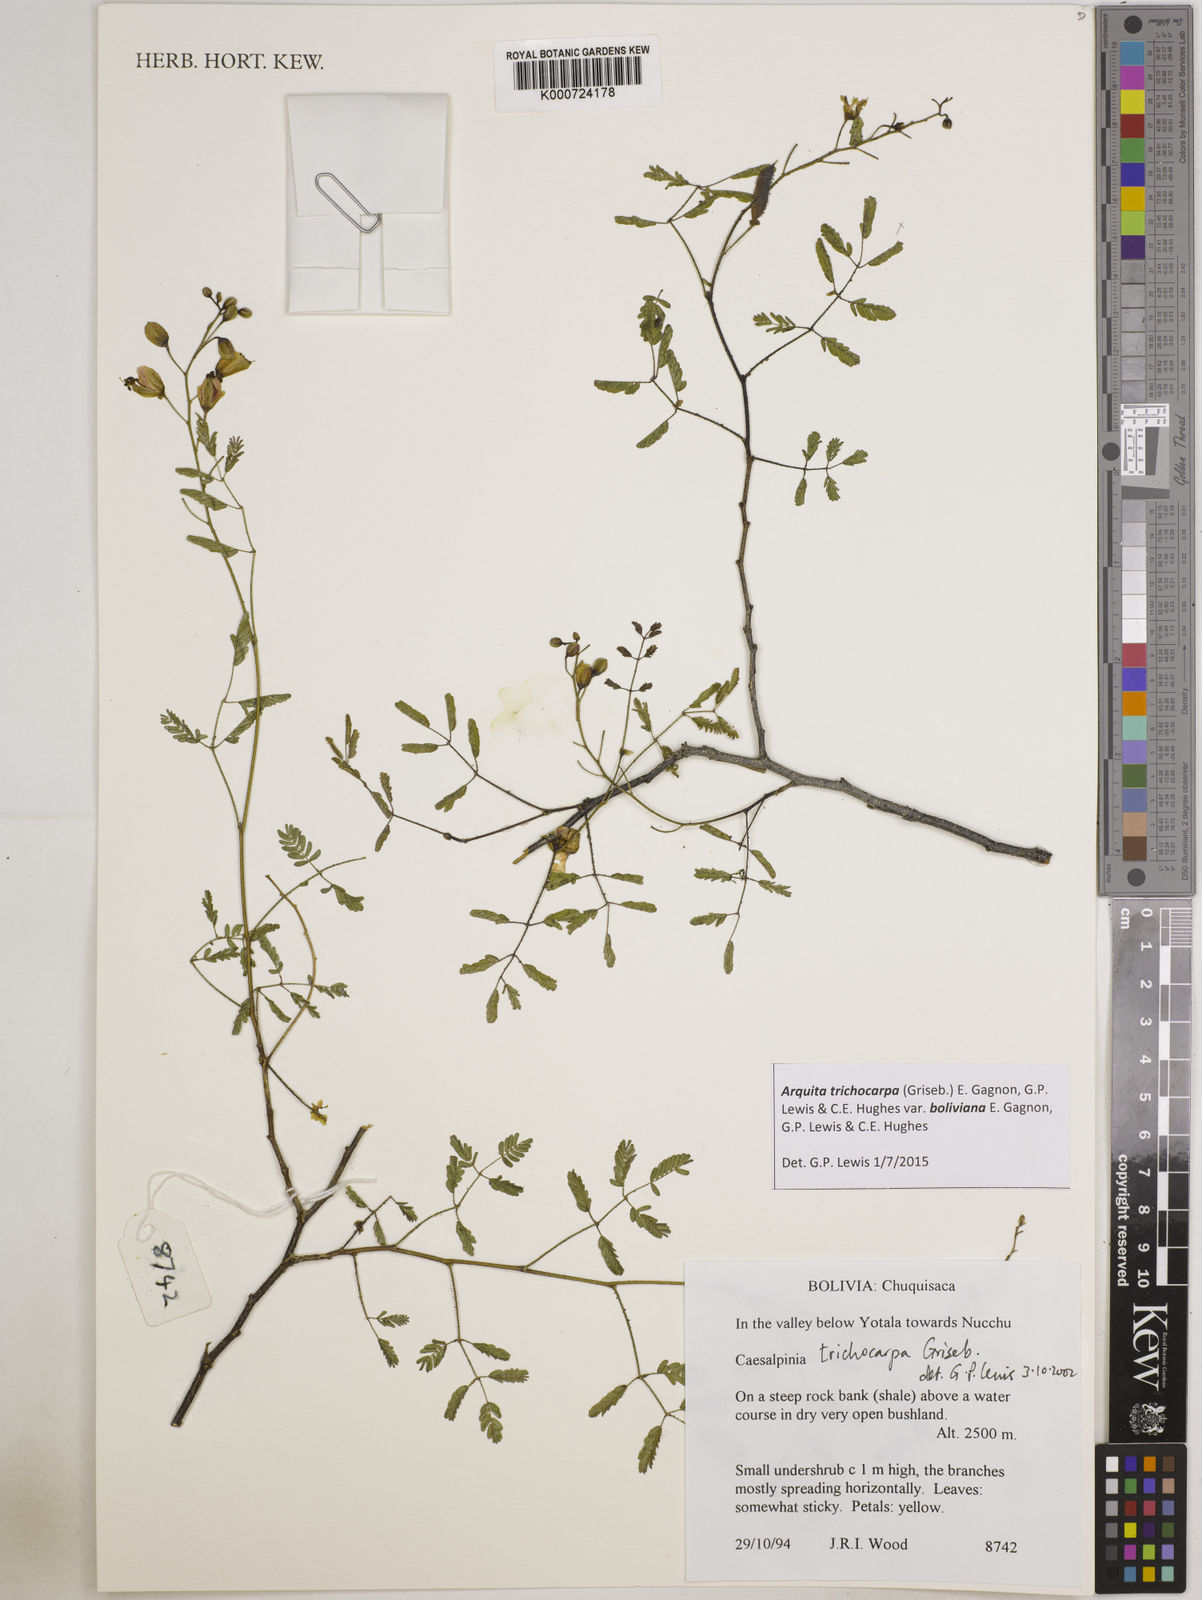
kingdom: Plantae
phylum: Tracheophyta
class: Magnoliopsida
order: Fabales
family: Fabaceae
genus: Arquita
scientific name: Arquita trichocarpa
